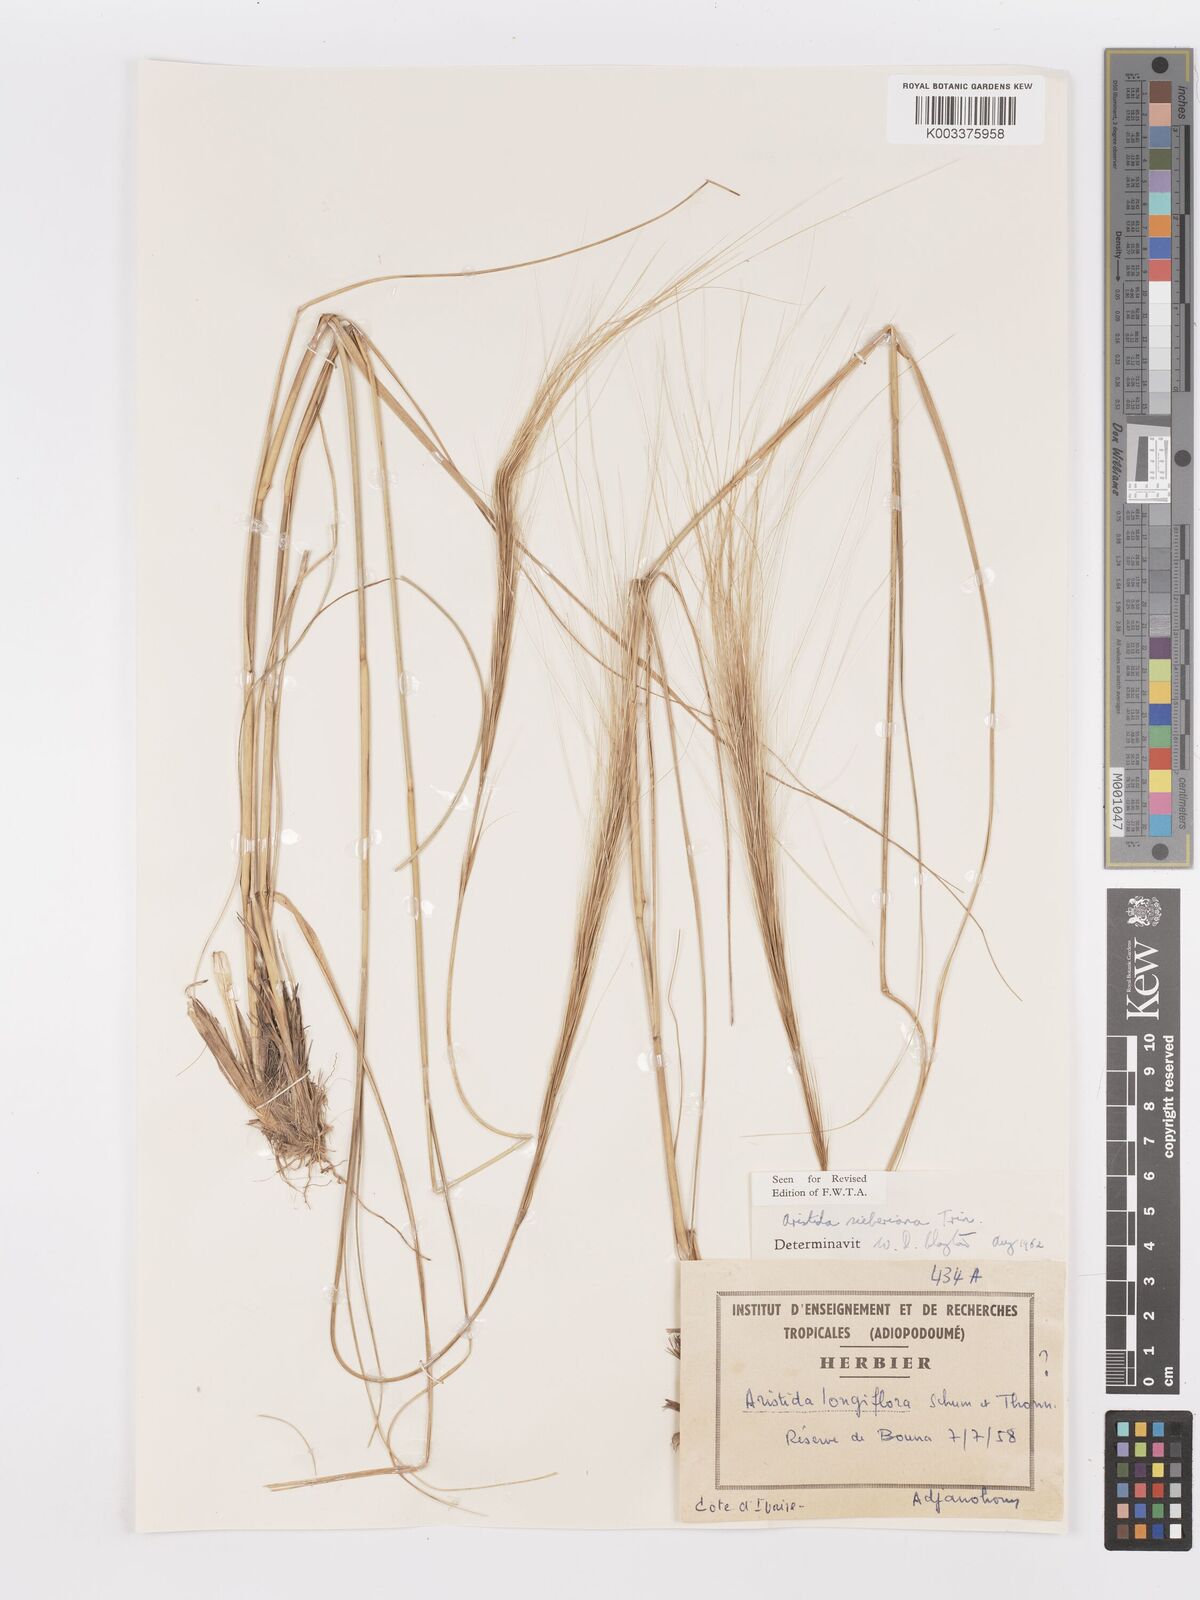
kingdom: Plantae
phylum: Tracheophyta
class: Liliopsida
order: Poales
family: Poaceae
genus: Aristida
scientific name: Aristida sieberiana
